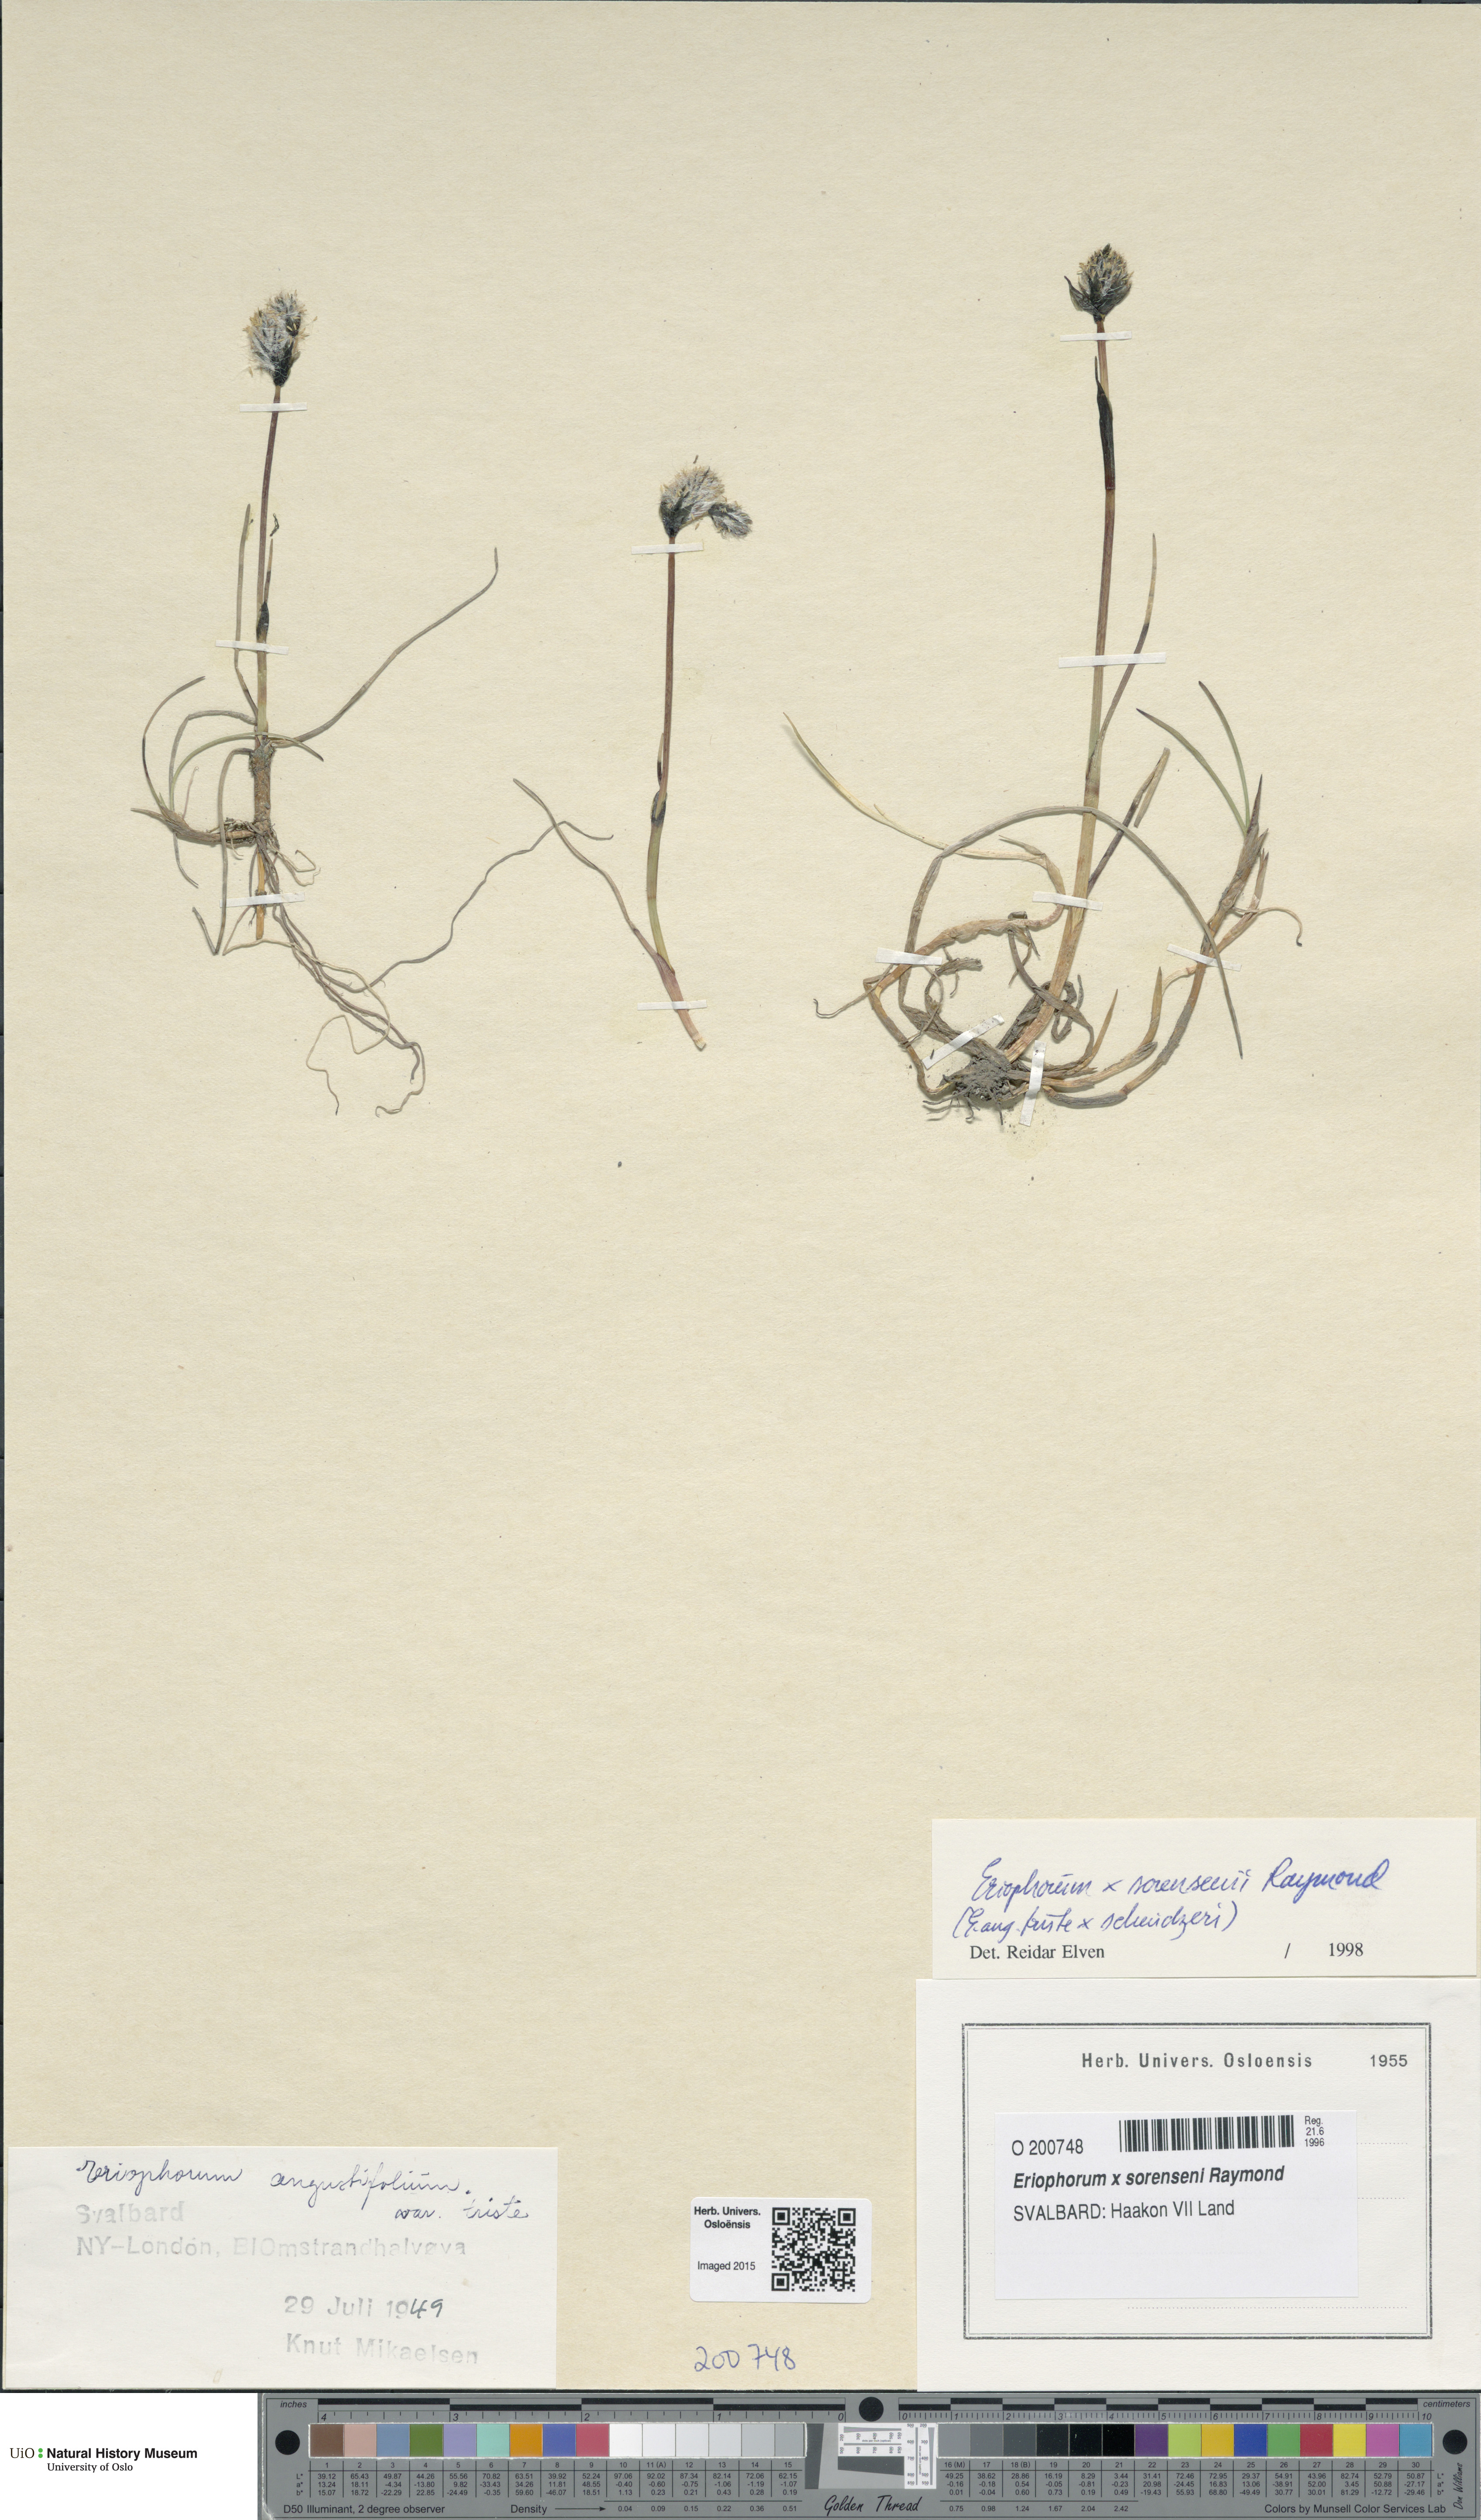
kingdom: Plantae
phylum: Tracheophyta
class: Liliopsida
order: Poales
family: Cyperaceae
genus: Eriophorum
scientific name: Eriophorum rousseauianum
